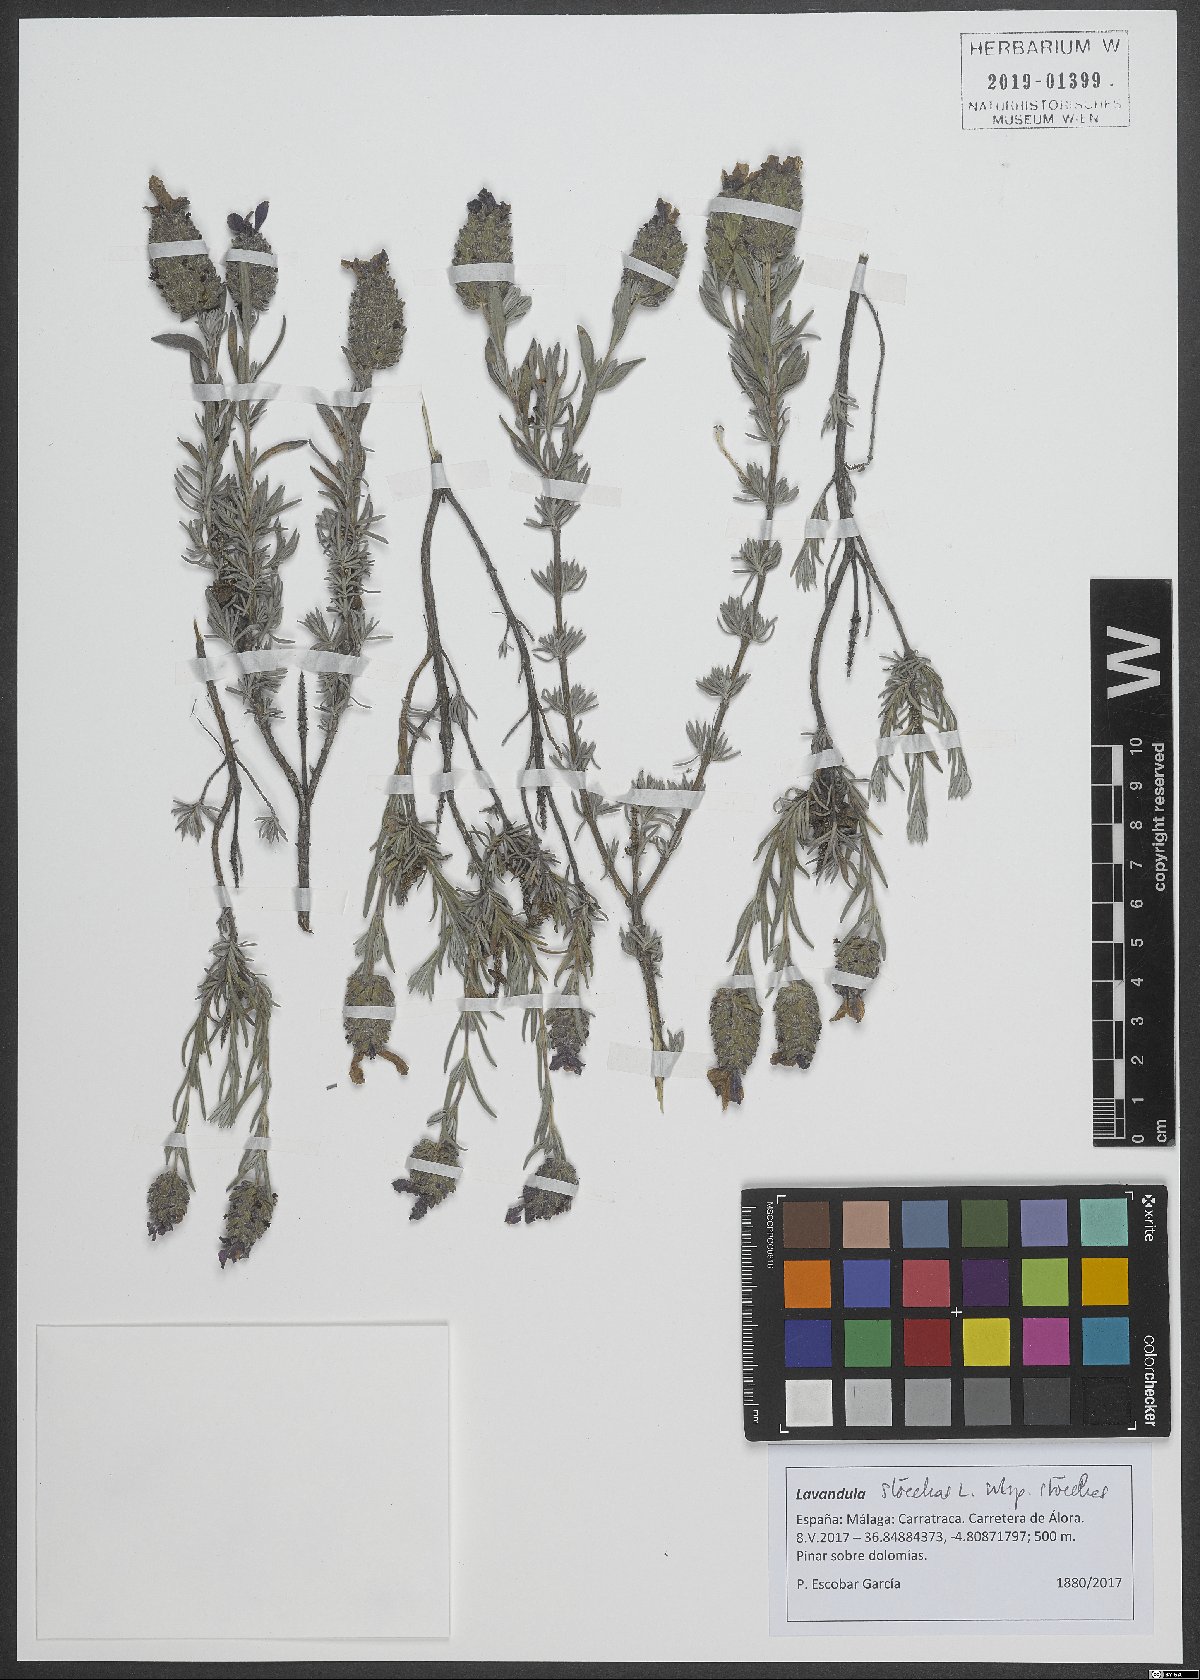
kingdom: Plantae
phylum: Tracheophyta
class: Magnoliopsida
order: Lamiales
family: Lamiaceae
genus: Lavandula
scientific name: Lavandula stoechas
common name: French lavender
